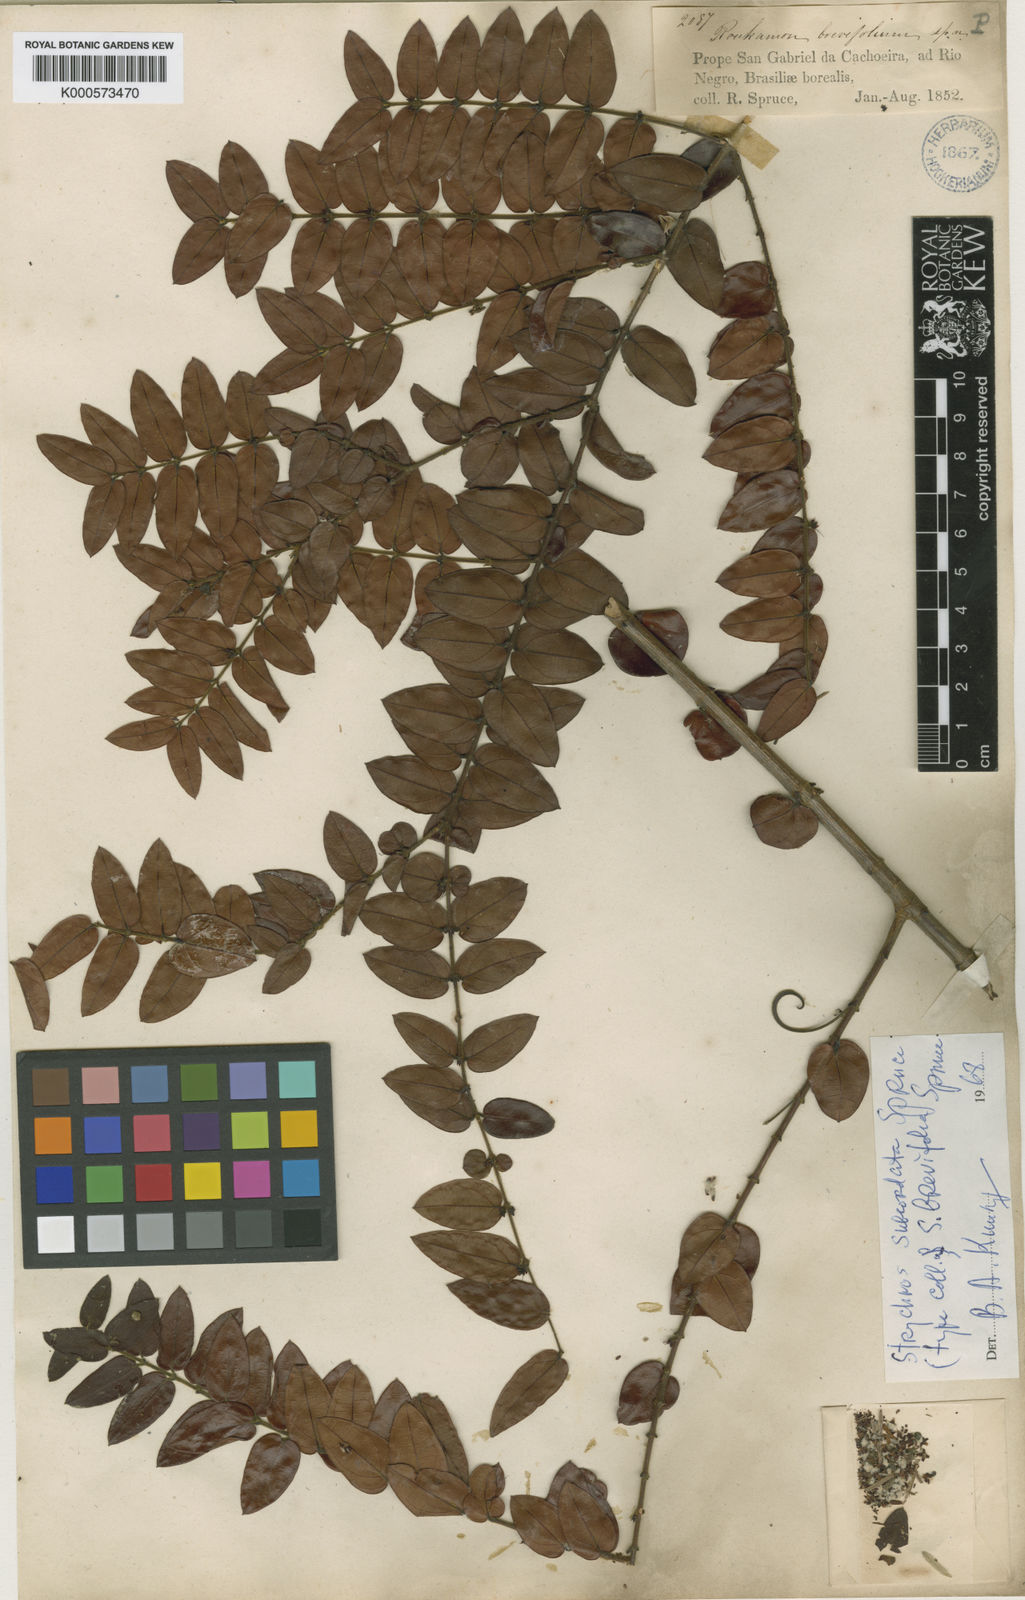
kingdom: Plantae
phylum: Tracheophyta
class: Magnoliopsida
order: Gentianales
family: Loganiaceae
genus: Strychnos
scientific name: Strychnos subcordata
